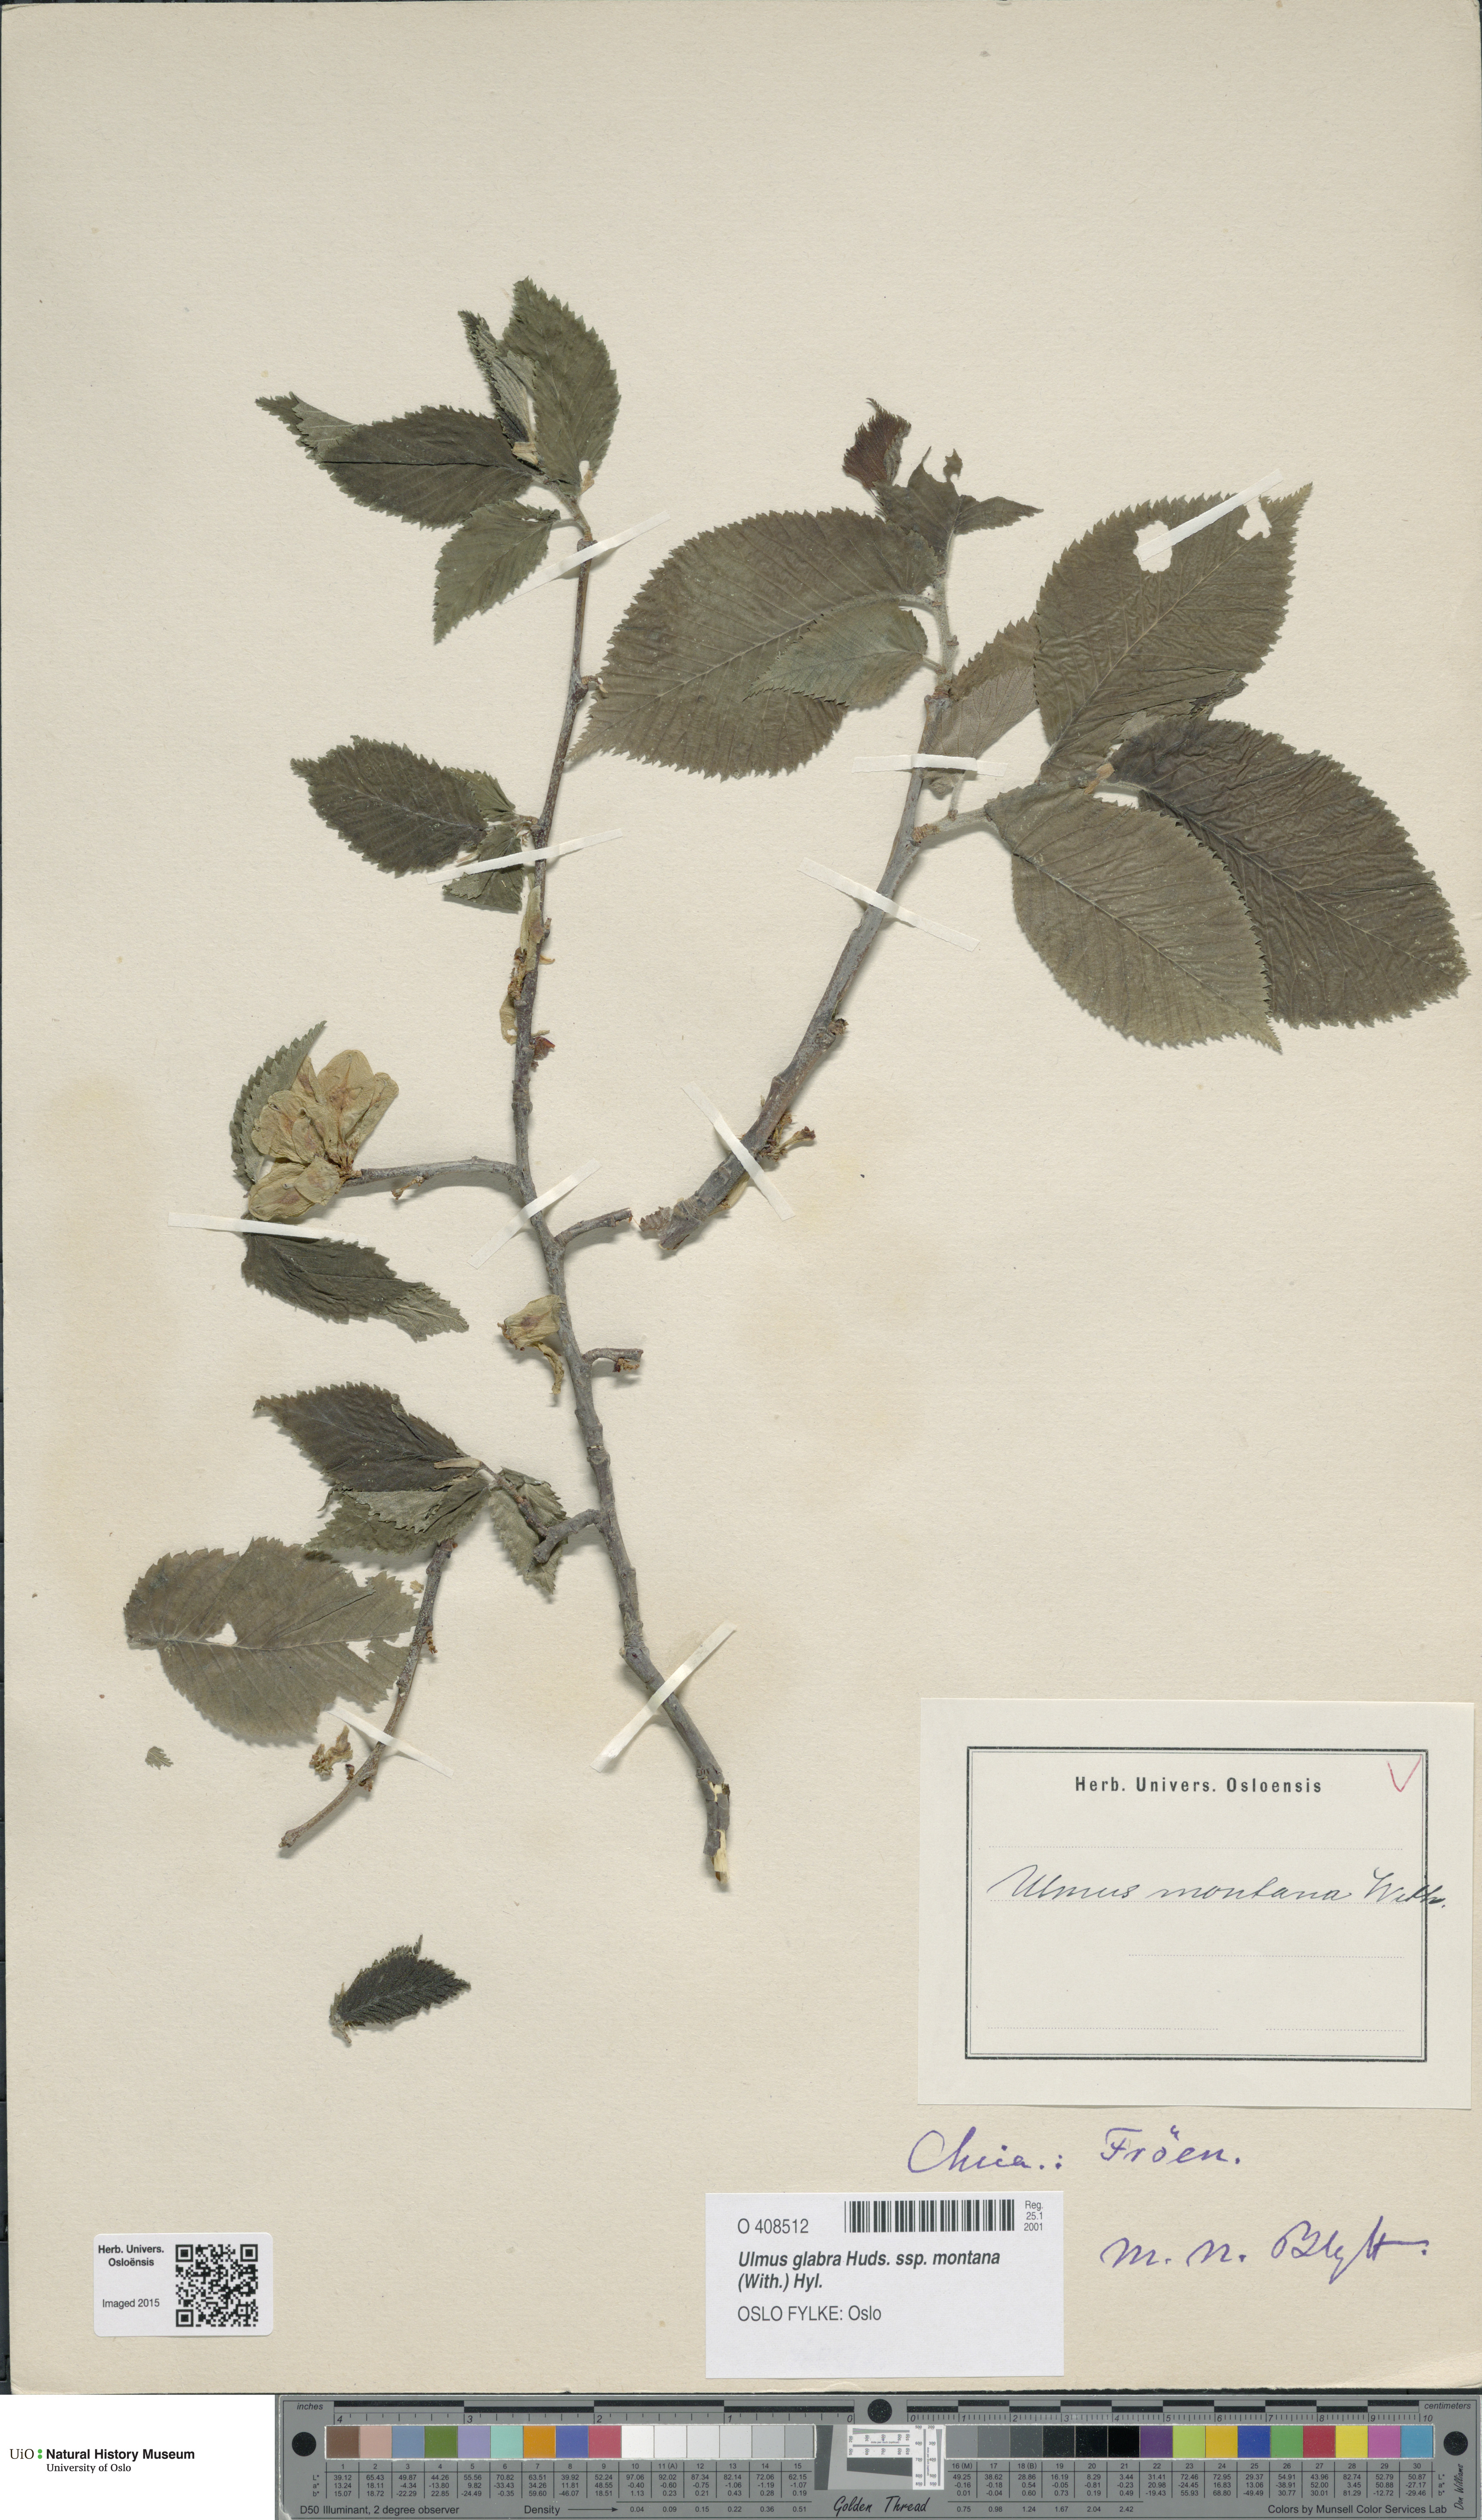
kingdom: Plantae
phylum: Tracheophyta
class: Magnoliopsida
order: Rosales
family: Ulmaceae
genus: Ulmus
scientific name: Ulmus glabra
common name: Wych elm
